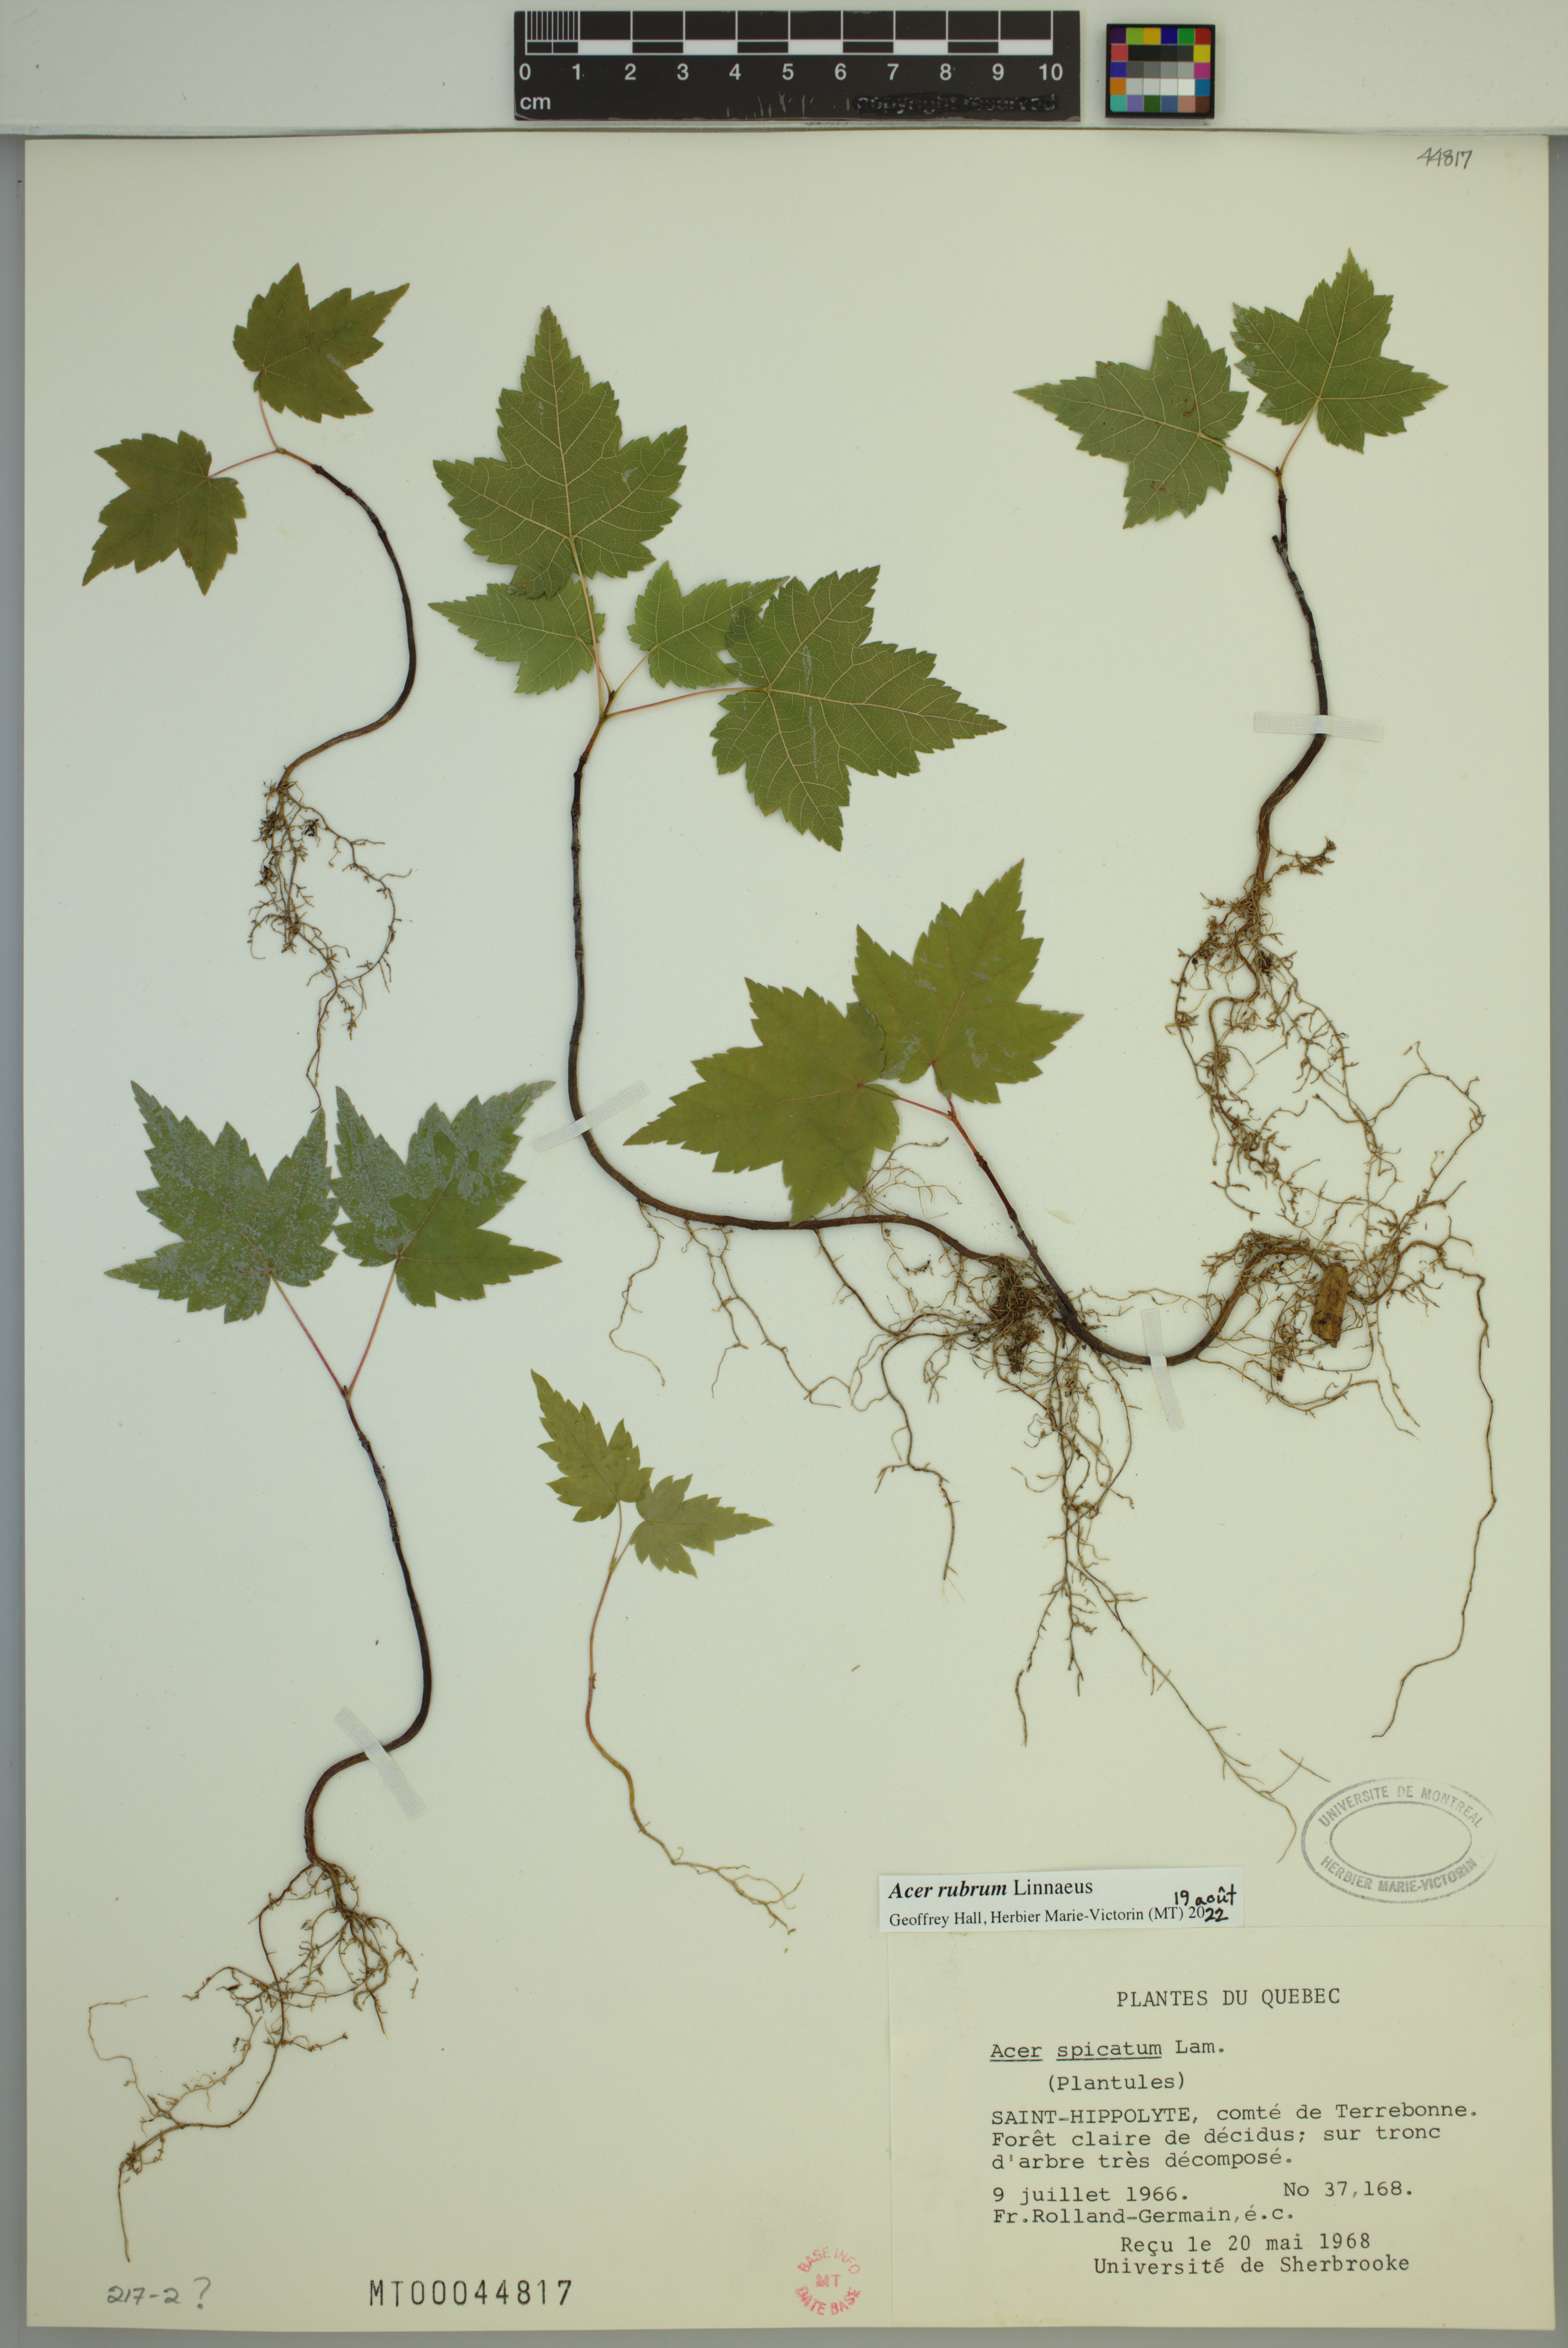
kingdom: Plantae
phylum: Tracheophyta
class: Magnoliopsida
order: Sapindales
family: Sapindaceae
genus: Acer
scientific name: Acer rubrum
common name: Red maple
